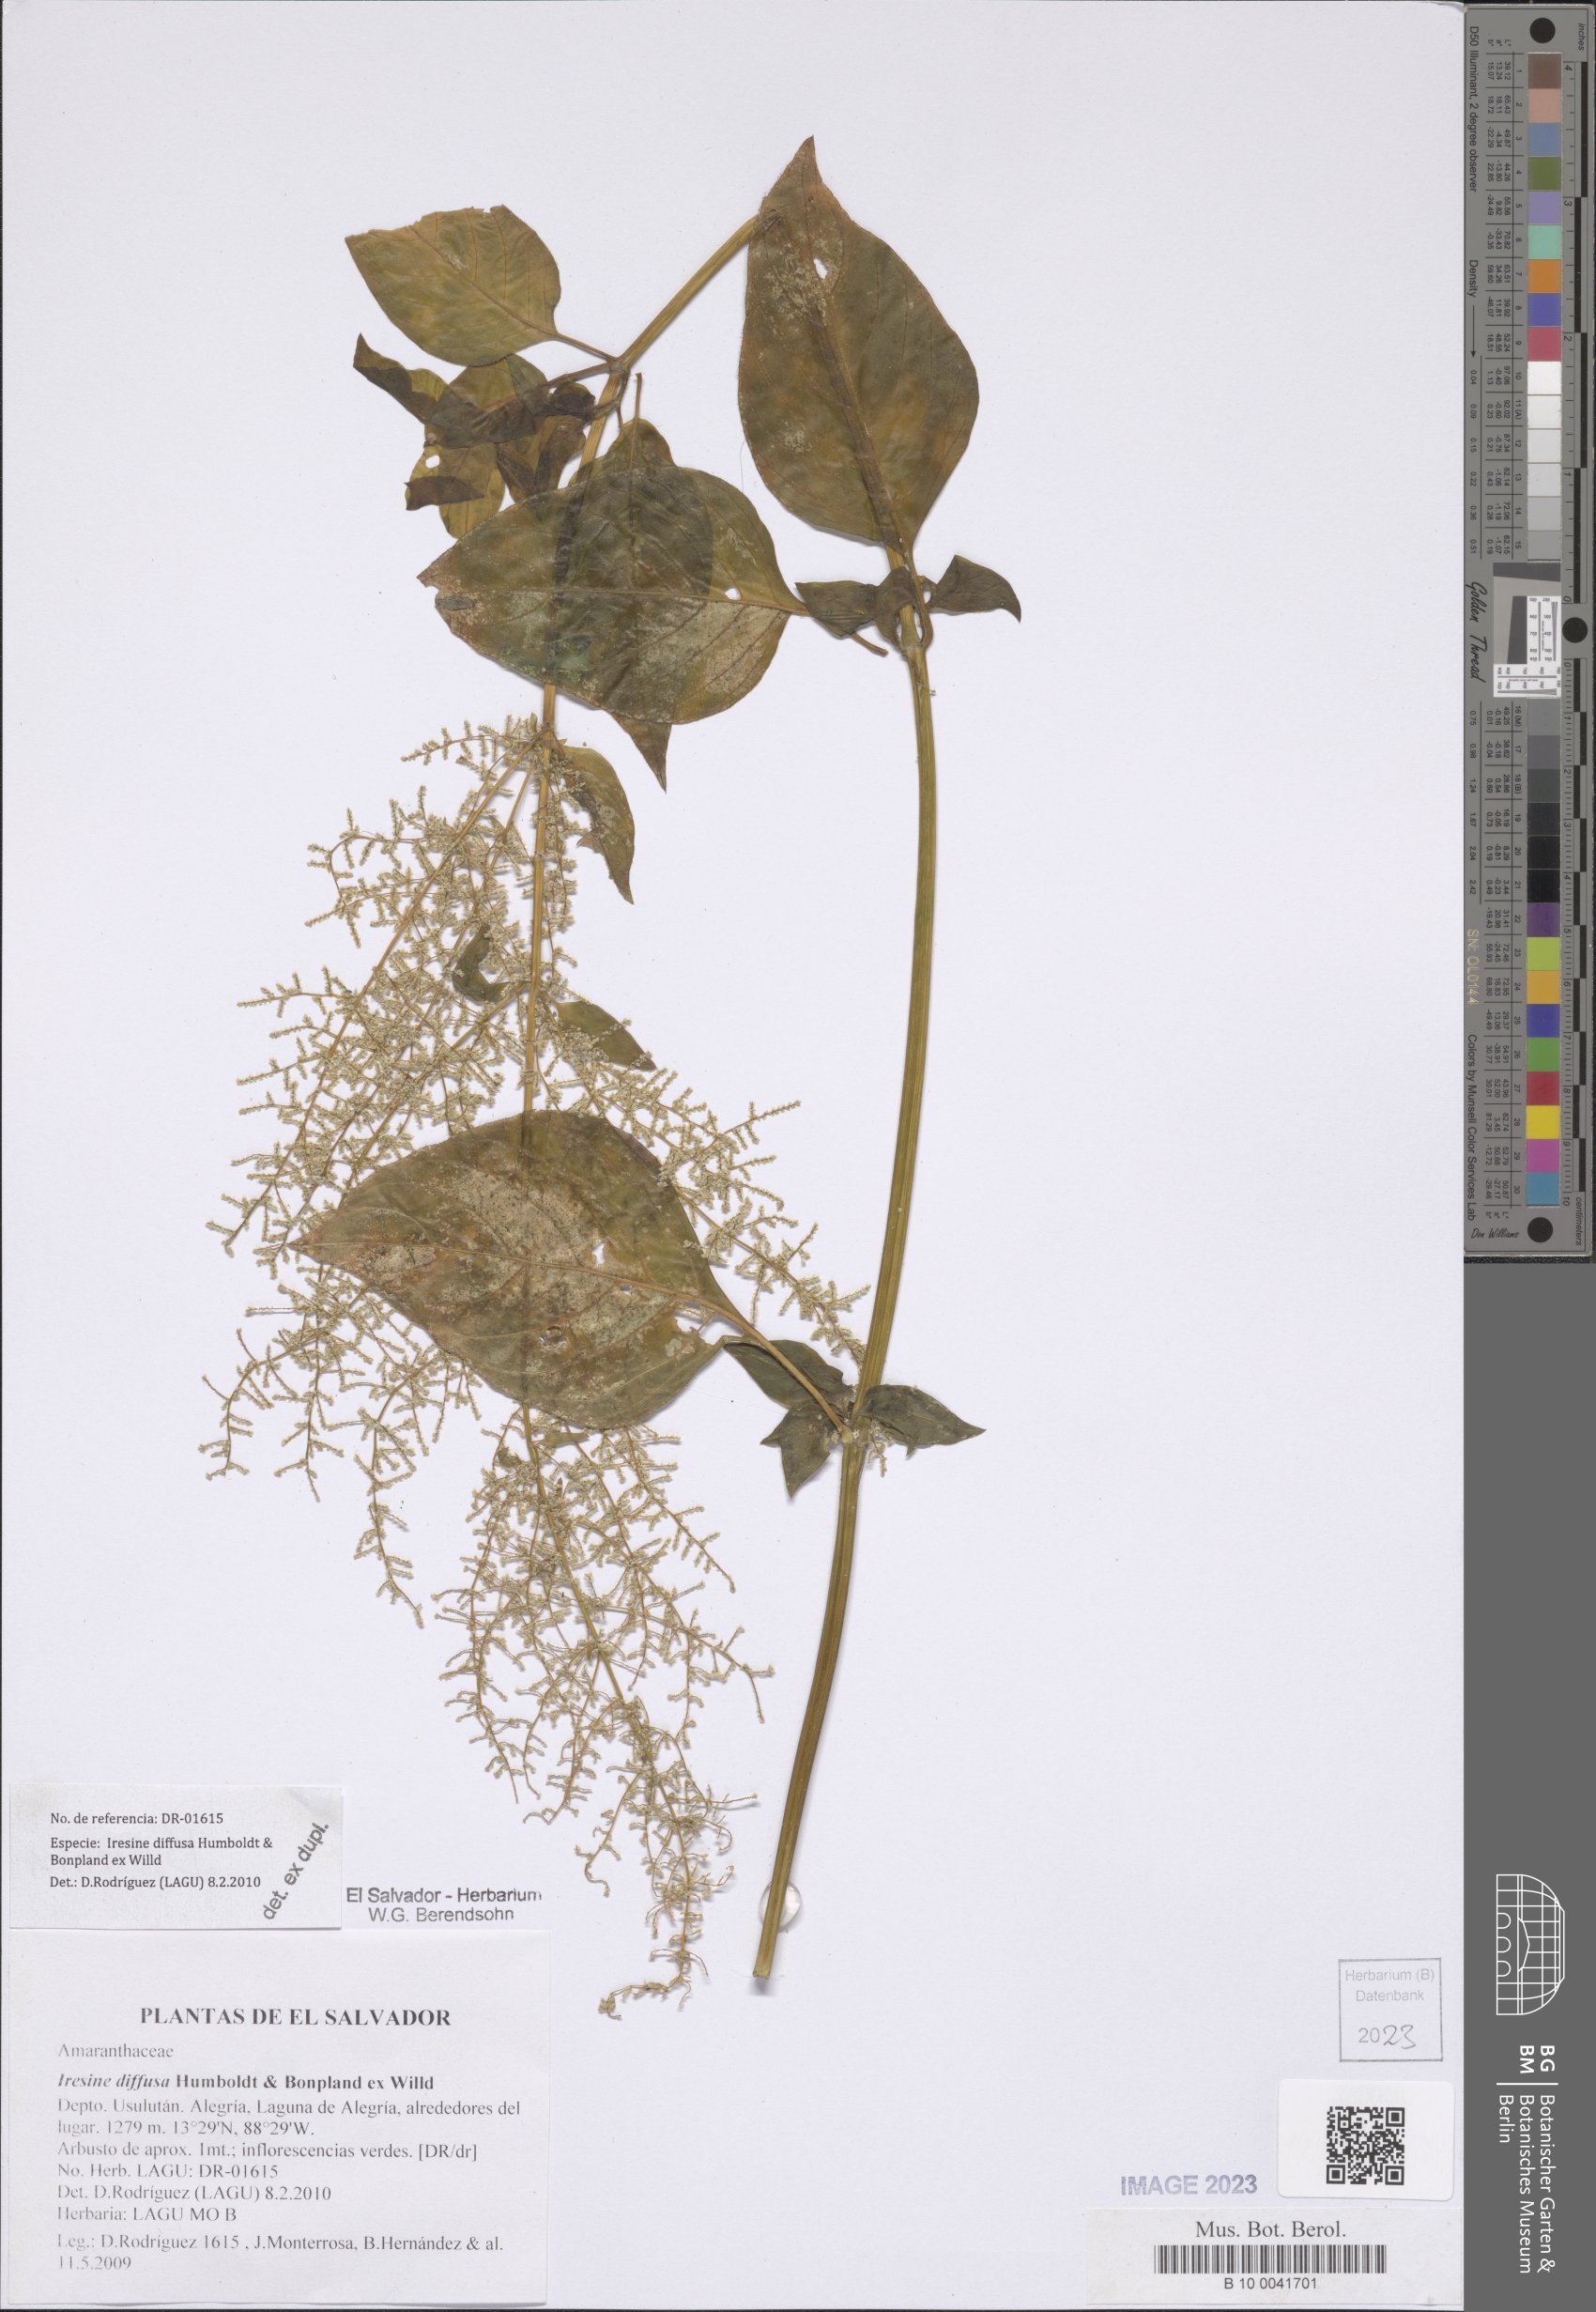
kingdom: Plantae
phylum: Tracheophyta
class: Magnoliopsida
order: Caryophyllales
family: Amaranthaceae
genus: Iresine
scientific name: Iresine diffusa
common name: Juba's-bush
